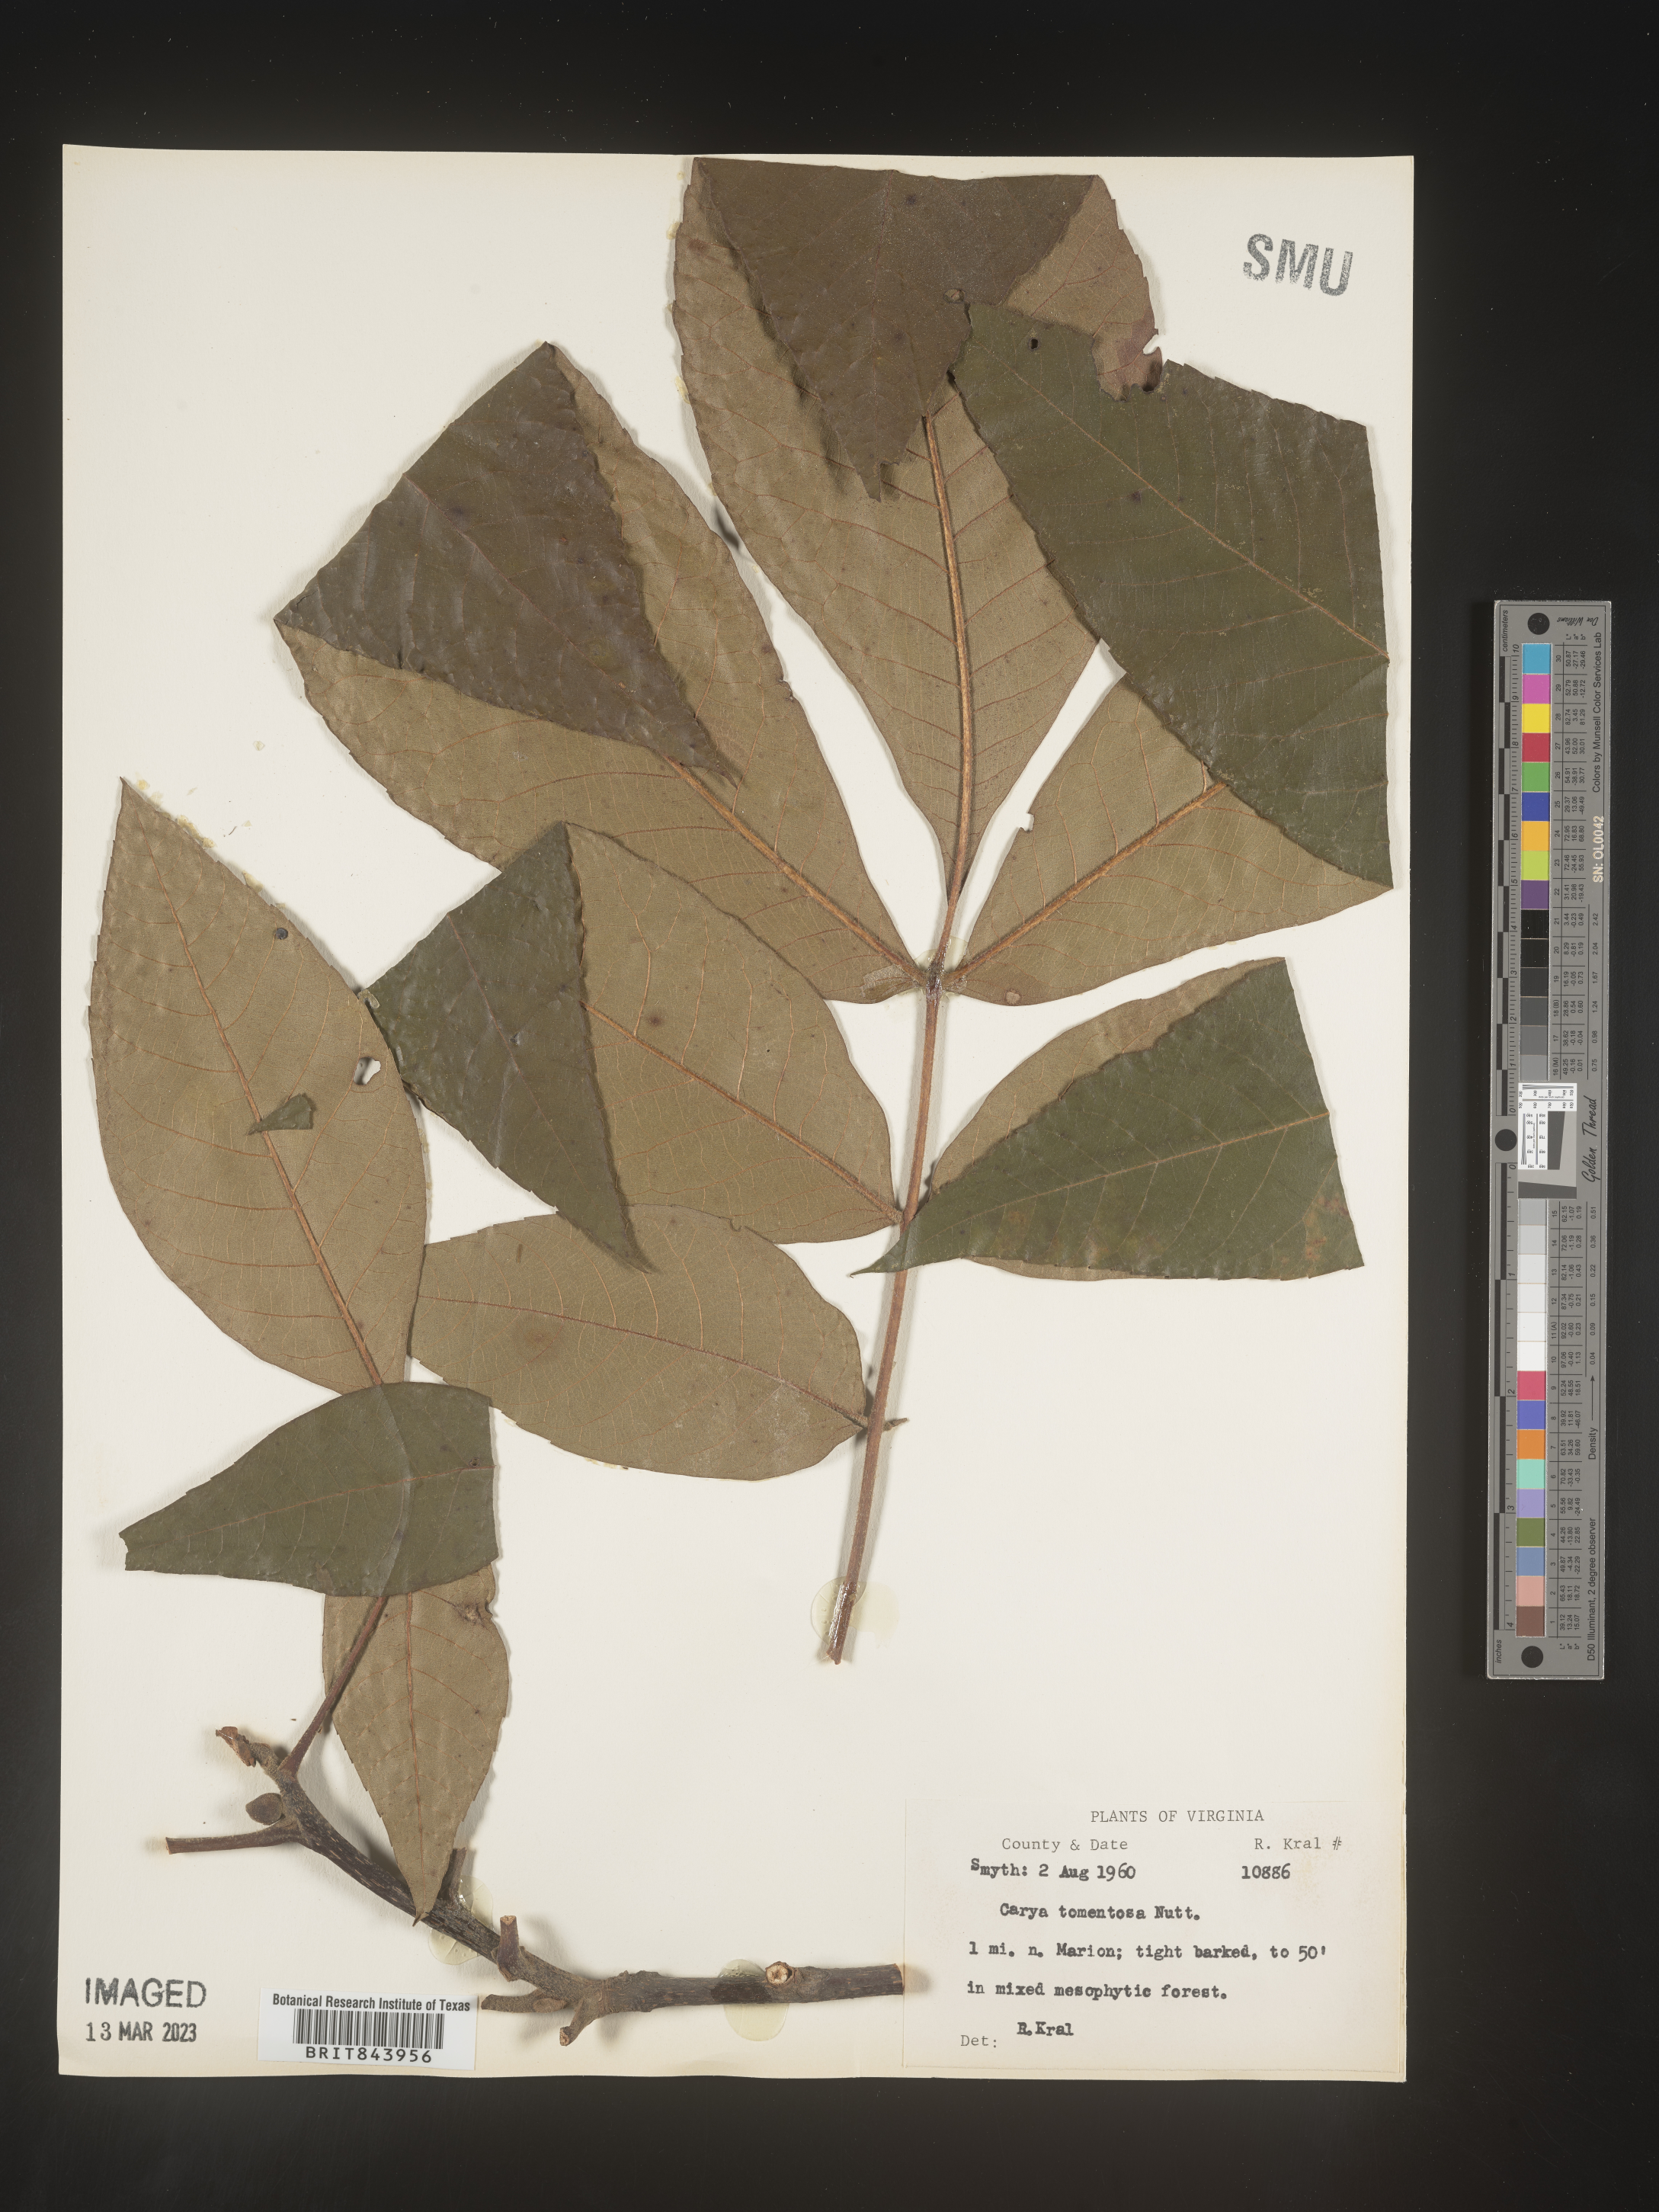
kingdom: Plantae
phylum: Tracheophyta
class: Magnoliopsida
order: Fagales
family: Juglandaceae
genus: Carya
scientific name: Carya alba
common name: Mockernut hickory
